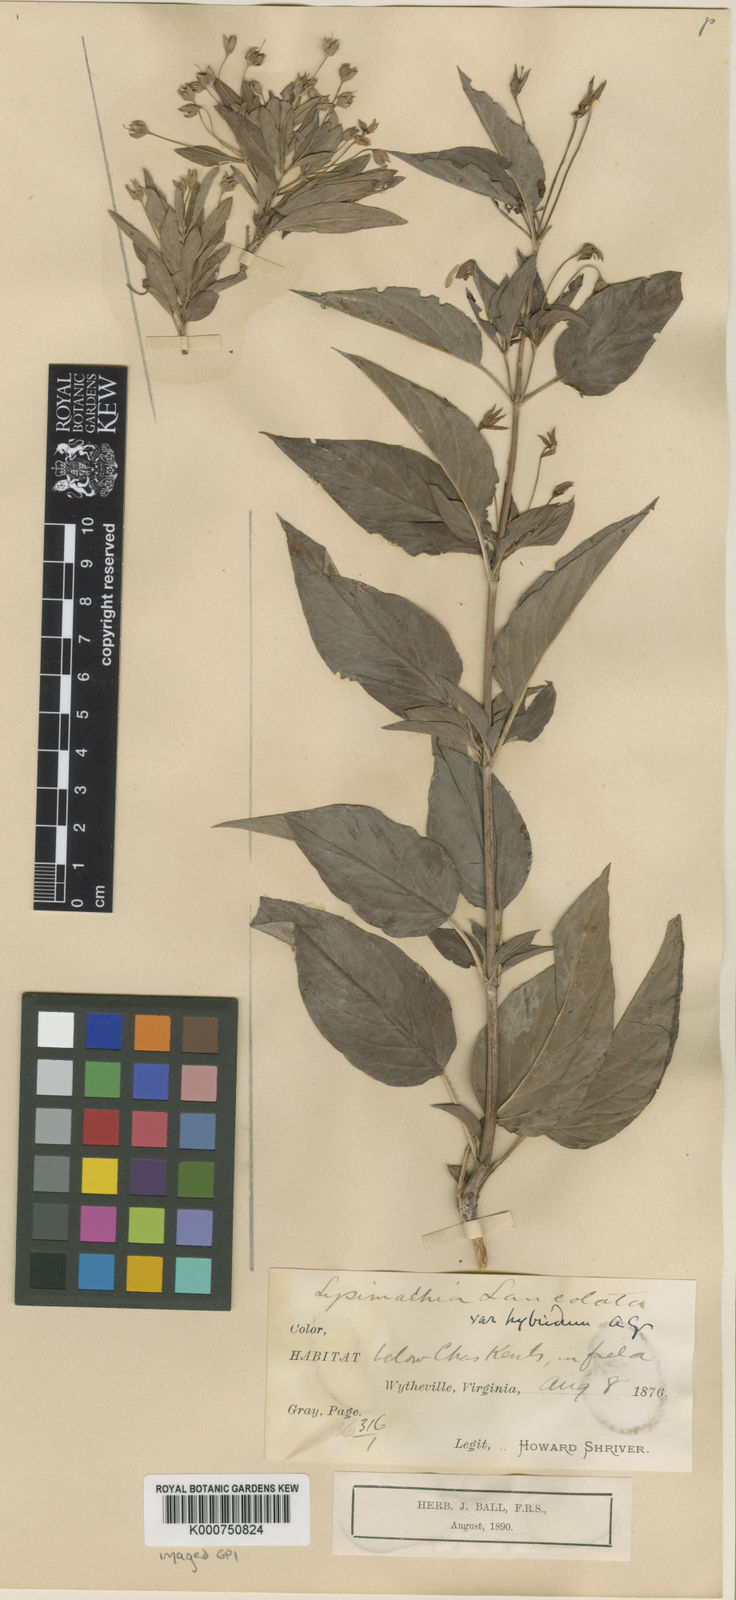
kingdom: Plantae
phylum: Tracheophyta
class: Magnoliopsida
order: Ericales
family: Primulaceae
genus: Lysimachia
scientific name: Lysimachia lanceolata
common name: Lance-leaved loosestrife
